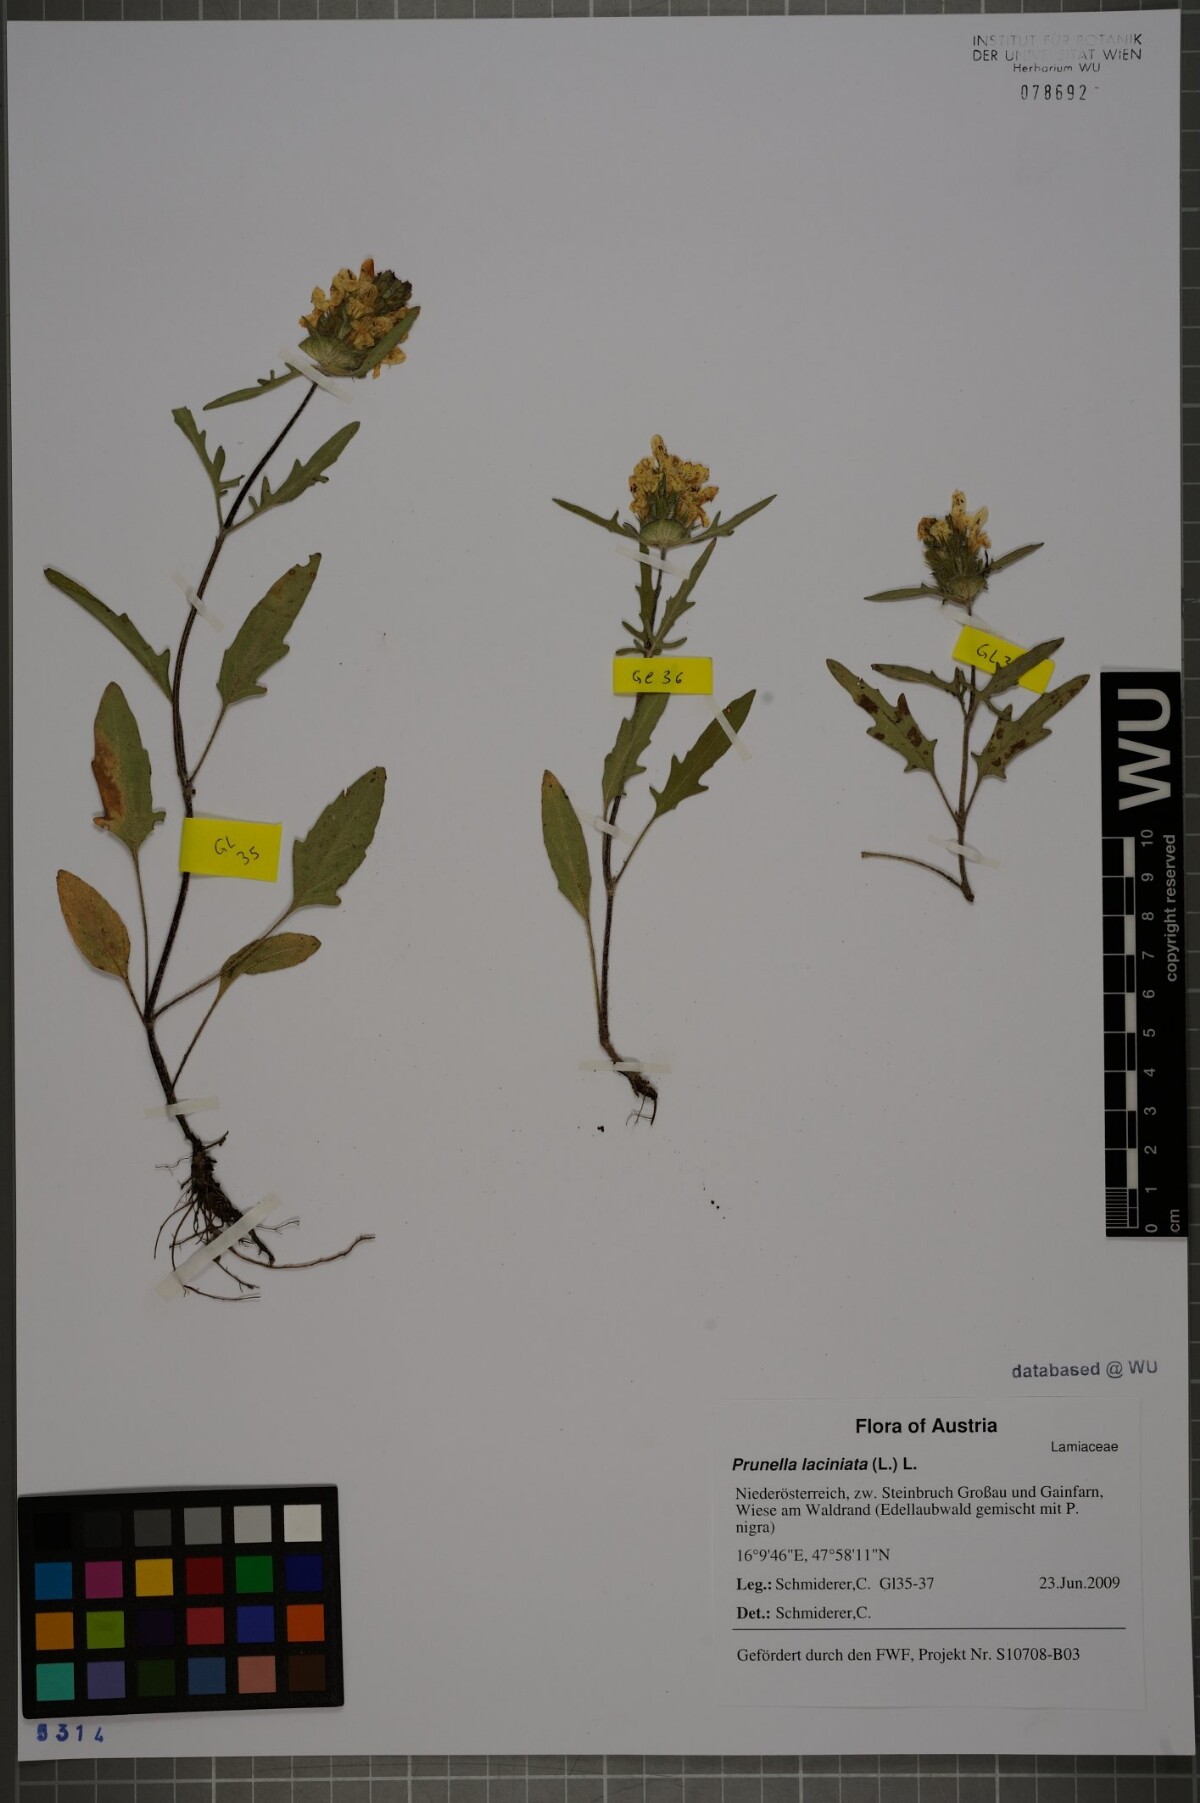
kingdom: Plantae
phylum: Tracheophyta
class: Magnoliopsida
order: Lamiales
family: Lamiaceae
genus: Prunella
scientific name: Prunella laciniata
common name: Cut-leaved selfheal
